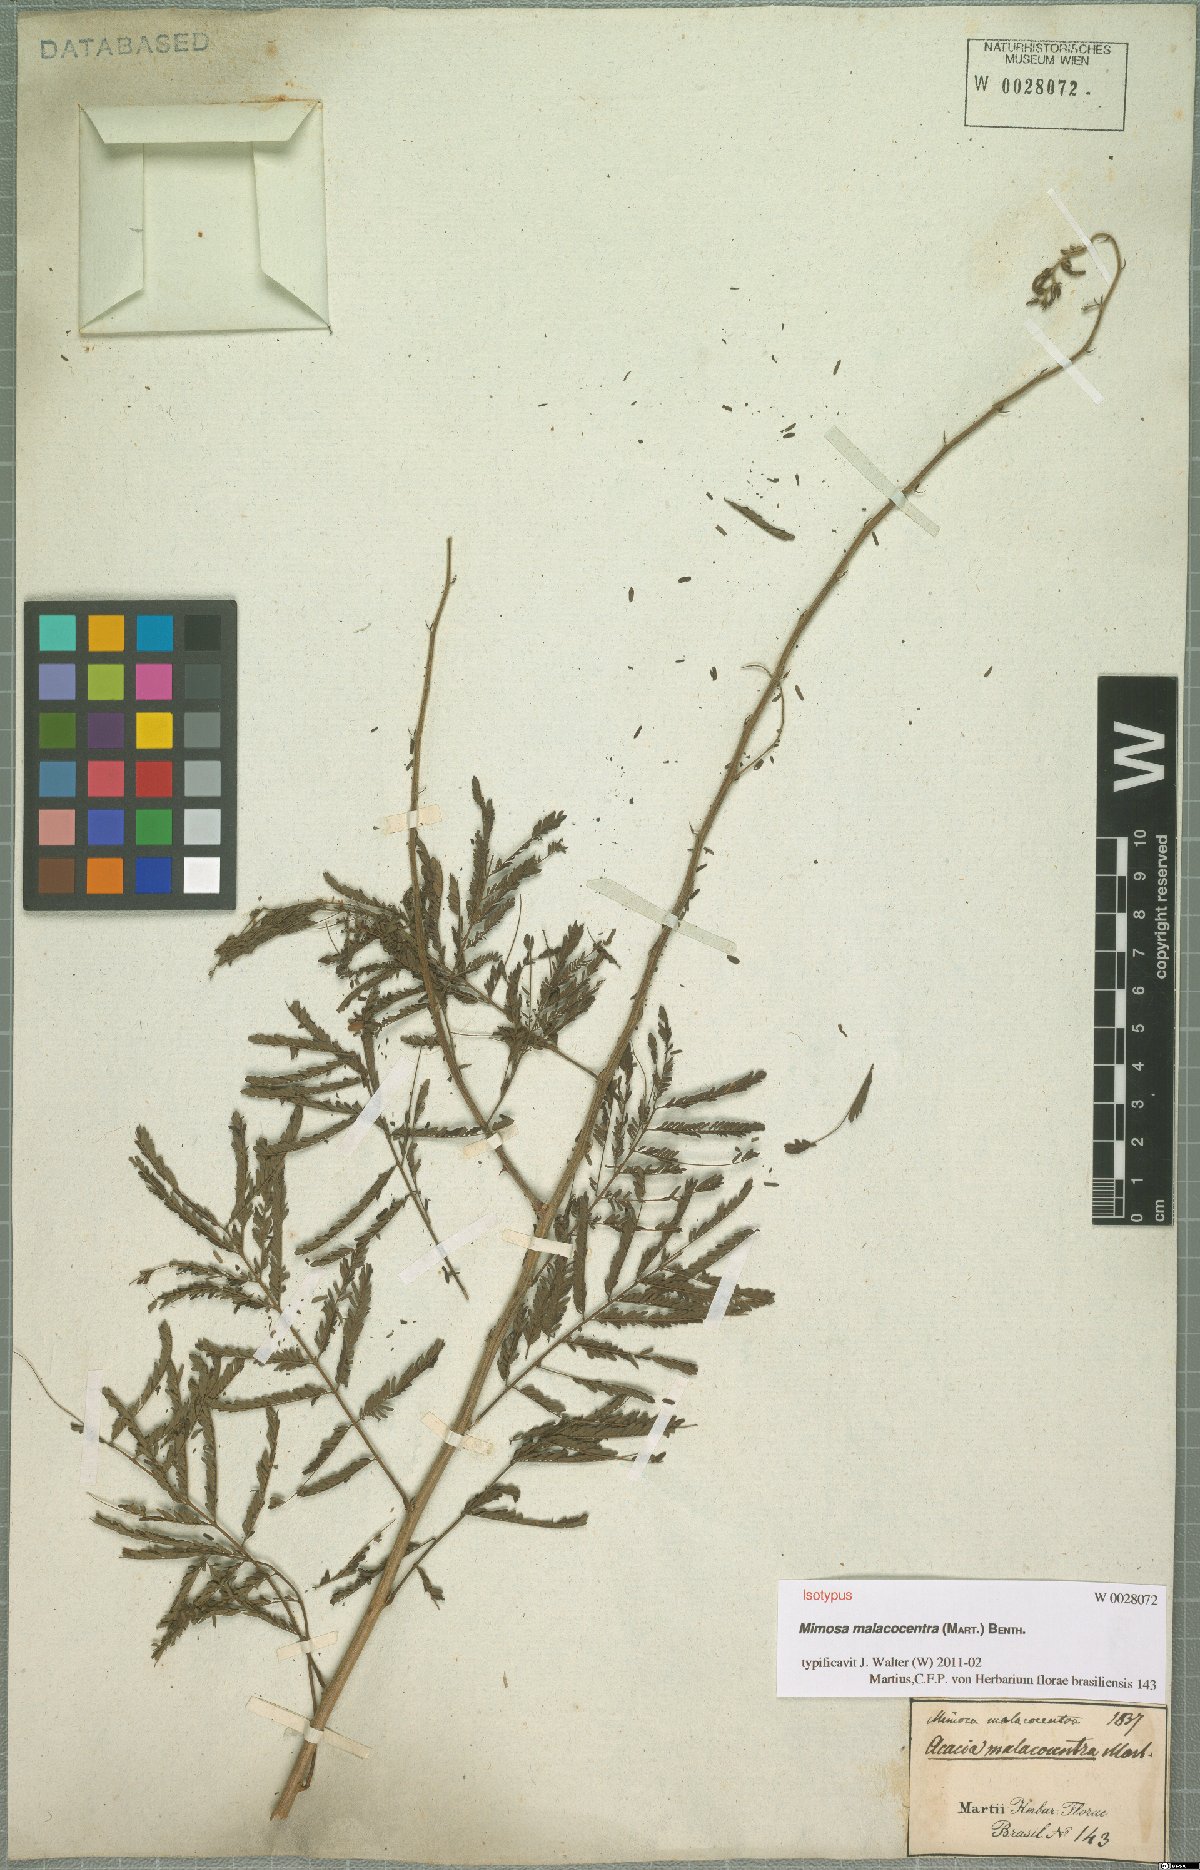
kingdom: Plantae
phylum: Tracheophyta
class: Magnoliopsida
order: Fabales
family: Fabaceae
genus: Mimosa
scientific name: Mimosa arenosa
